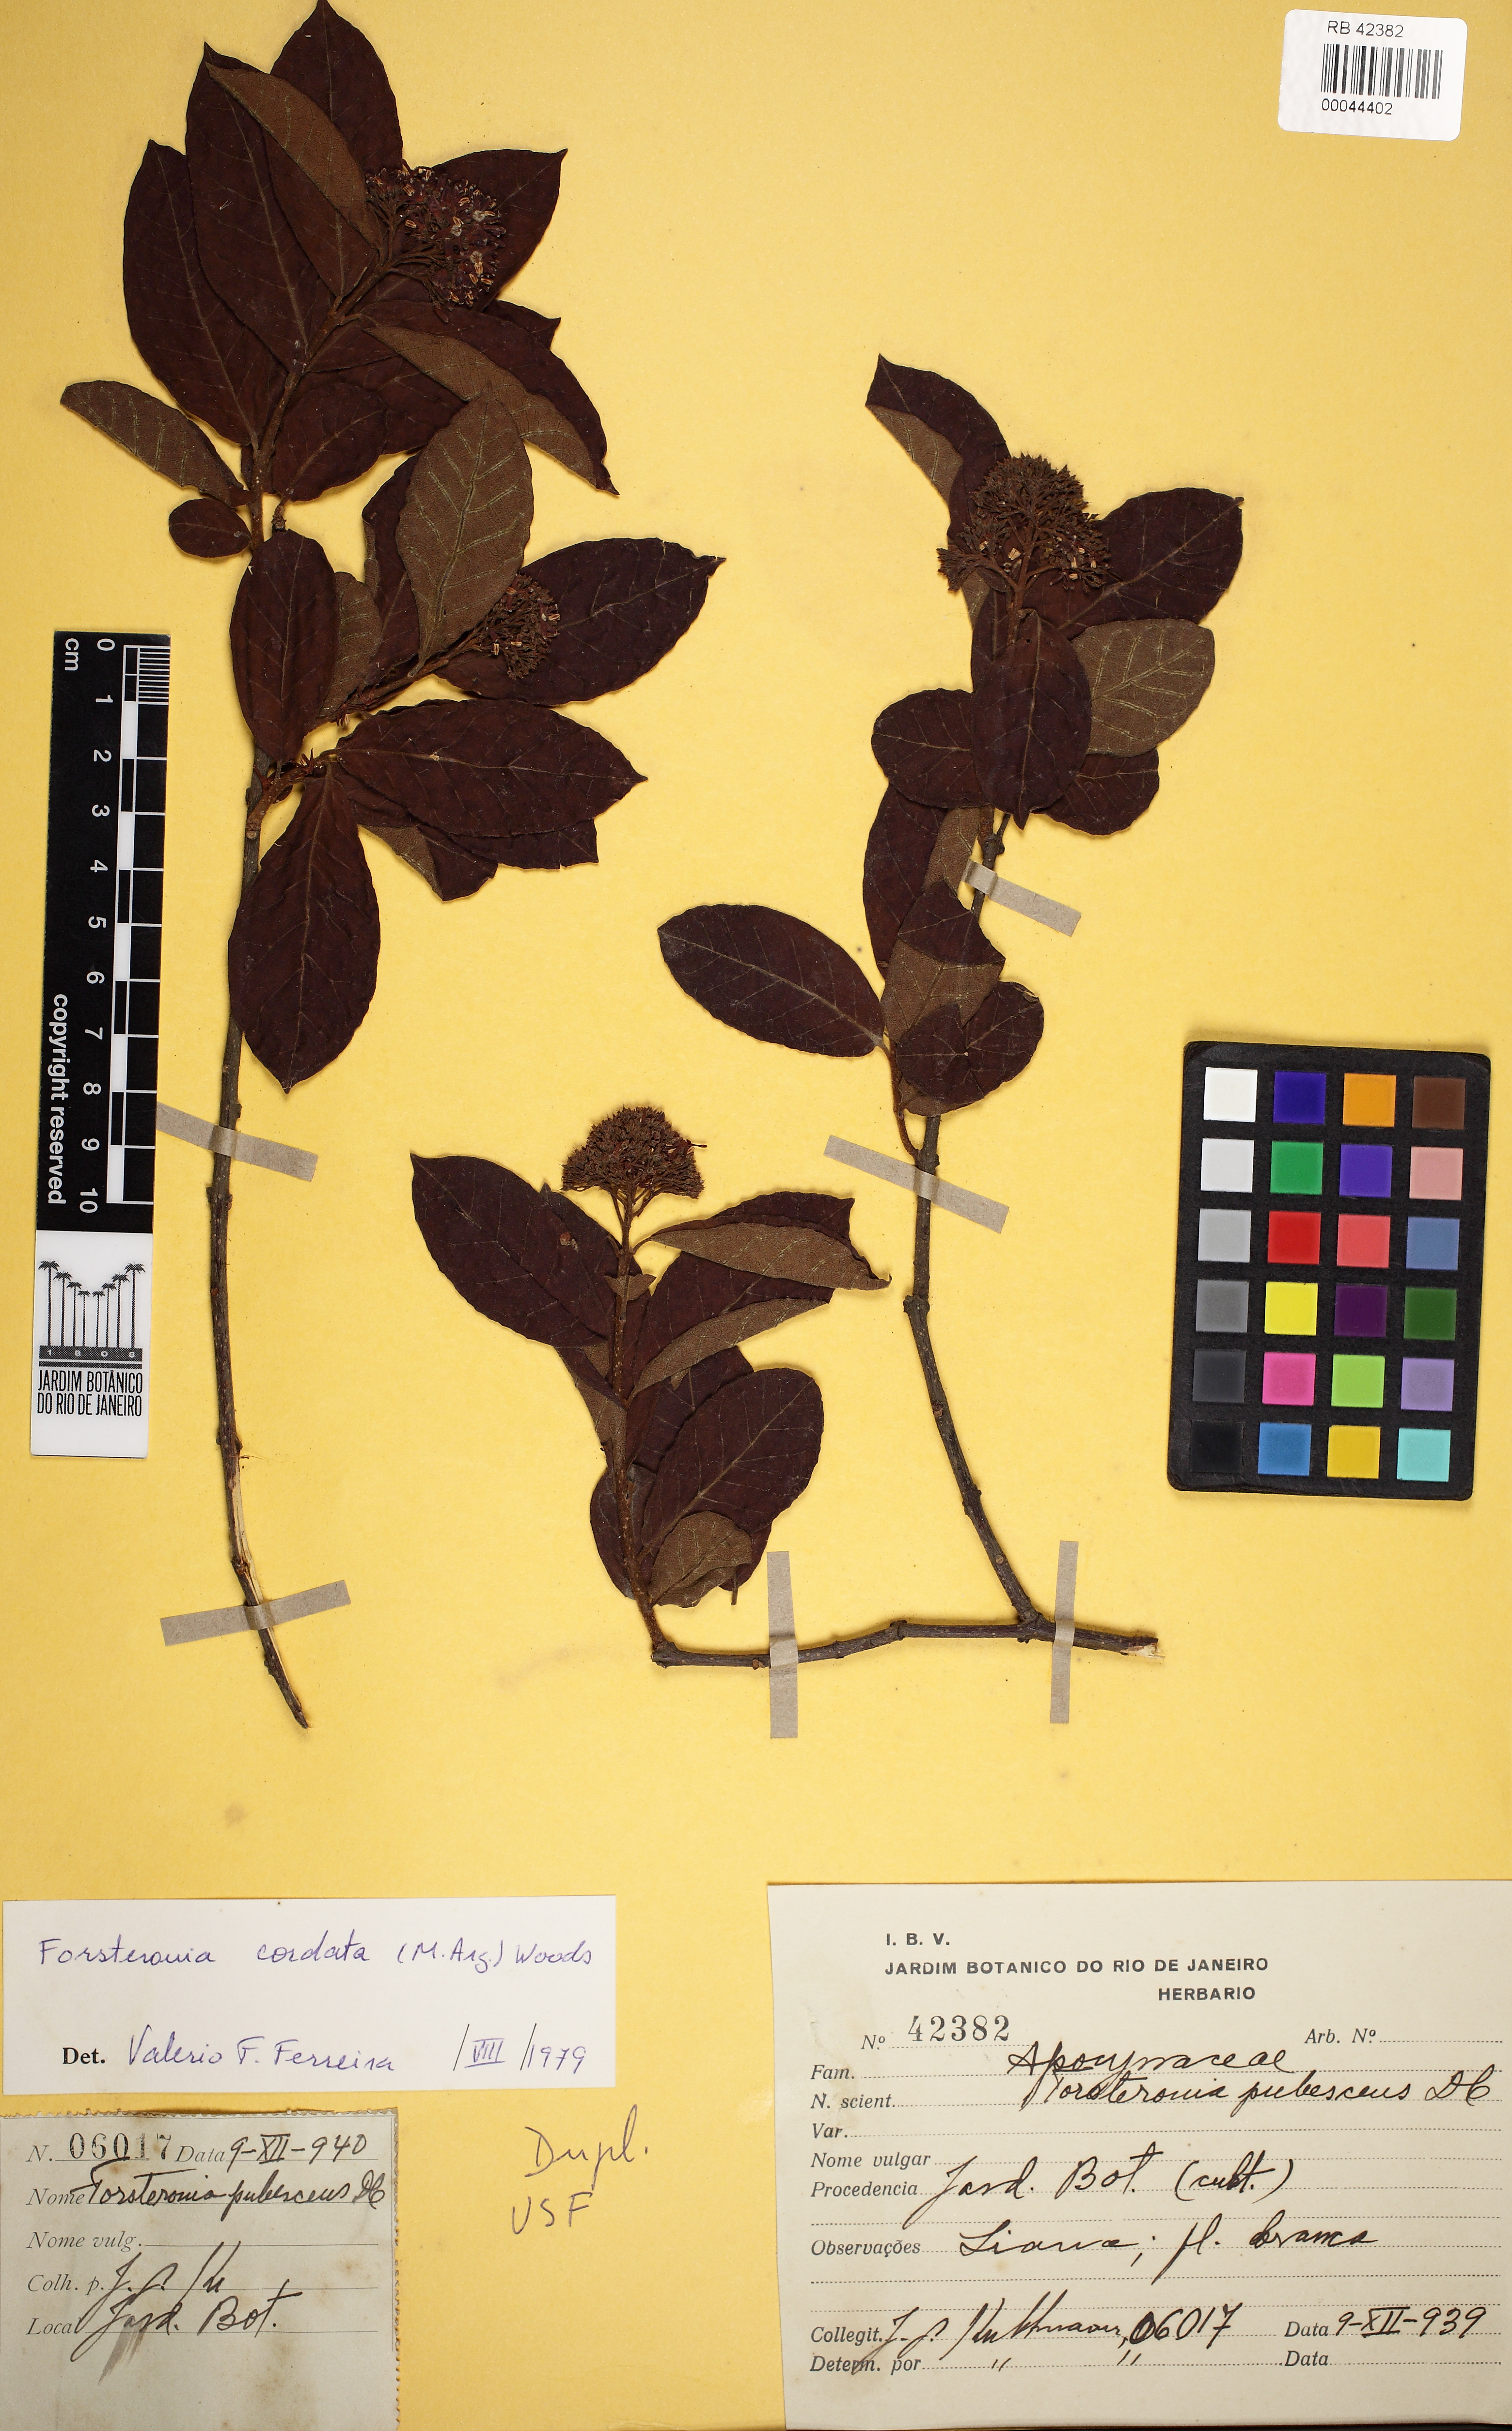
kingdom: Plantae
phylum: Tracheophyta
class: Magnoliopsida
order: Gentianales
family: Apocynaceae
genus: Forsteronia
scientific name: Forsteronia cordata
